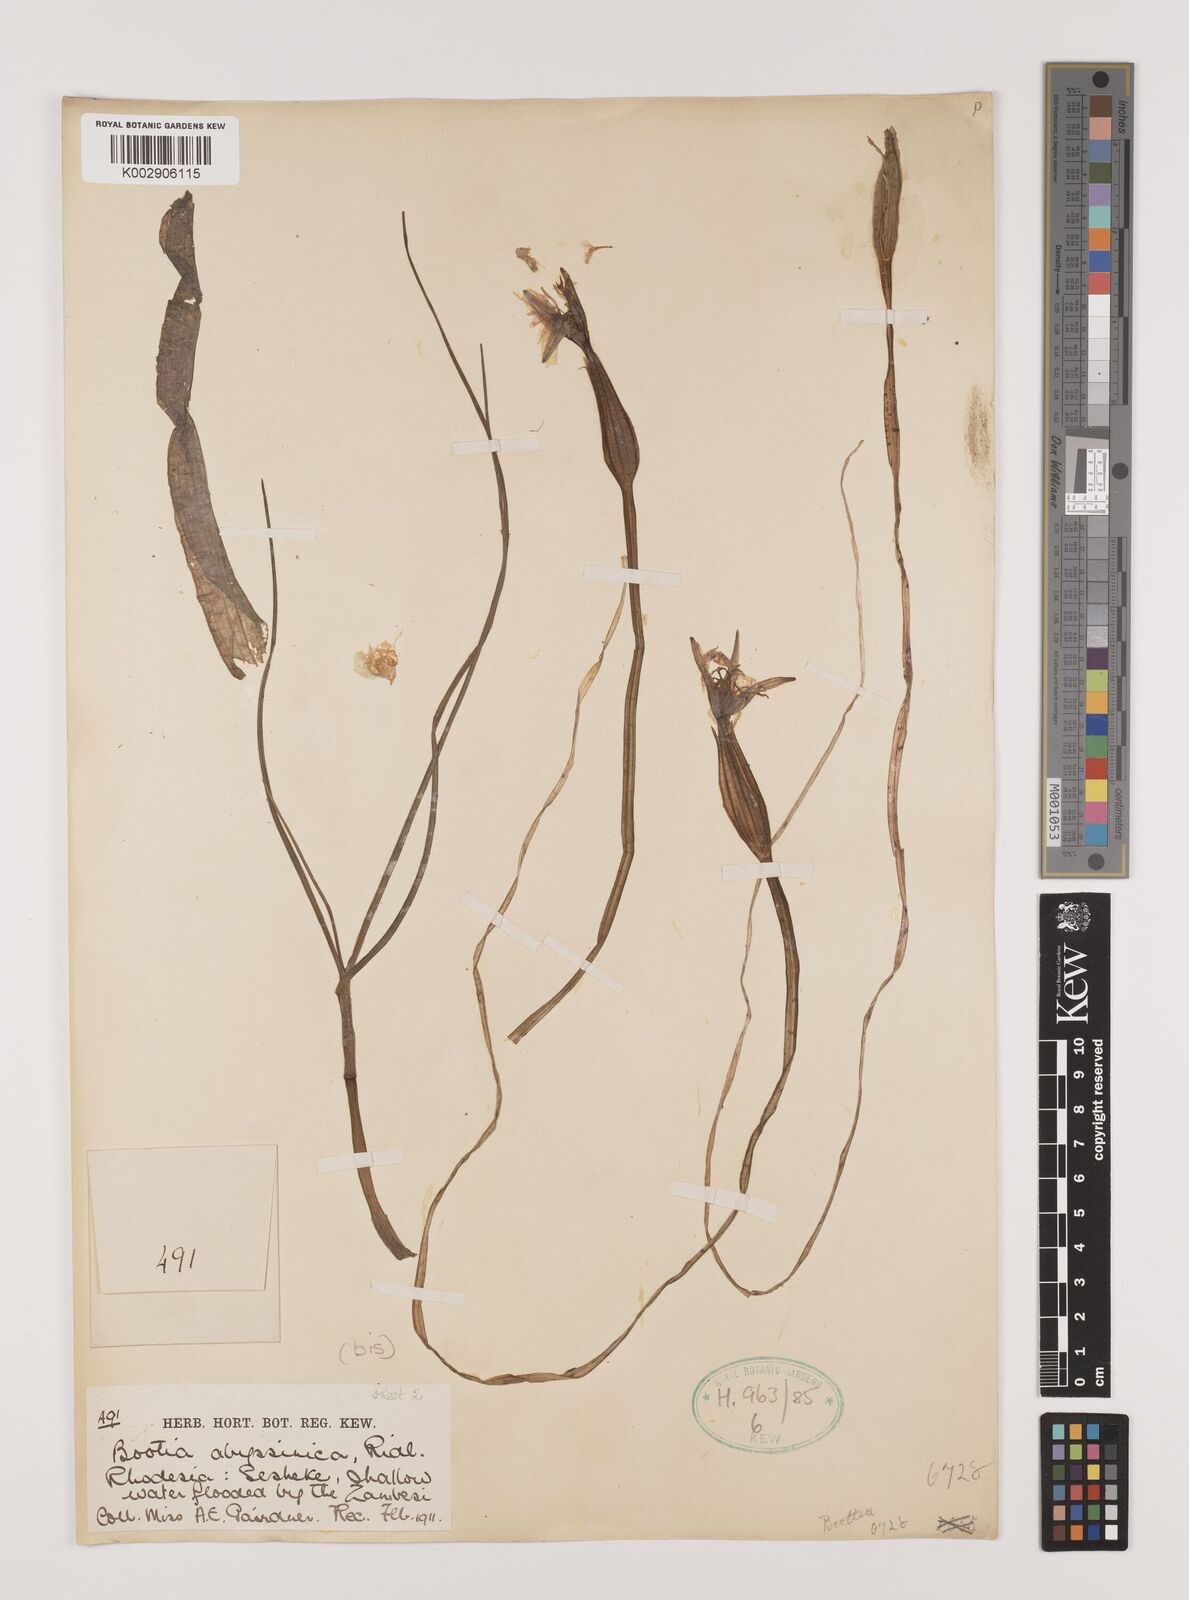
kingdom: Plantae
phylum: Tracheophyta
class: Liliopsida
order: Alismatales
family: Hydrocharitaceae
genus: Ottelia
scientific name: Ottelia ulvifolia
